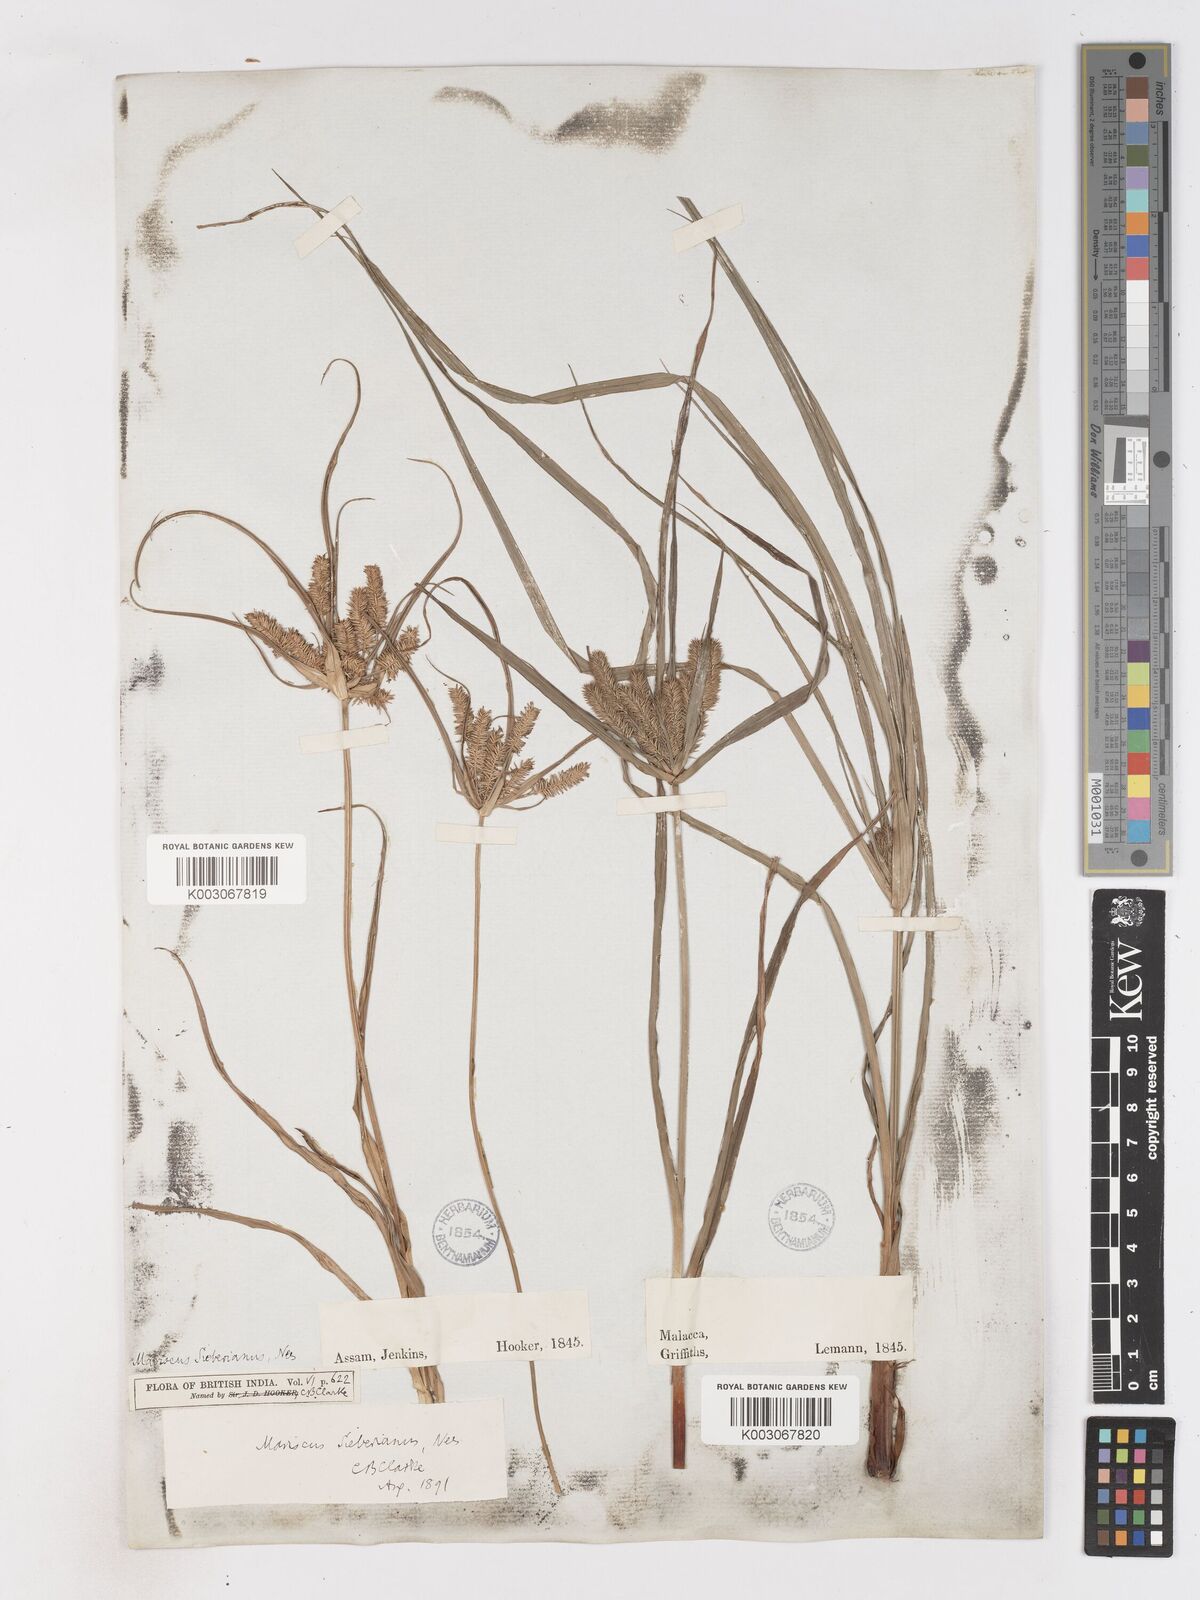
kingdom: Plantae
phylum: Tracheophyta
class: Liliopsida
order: Poales
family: Cyperaceae
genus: Cyperus
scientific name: Cyperus cyperoides
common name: Pacific island flat sedge
